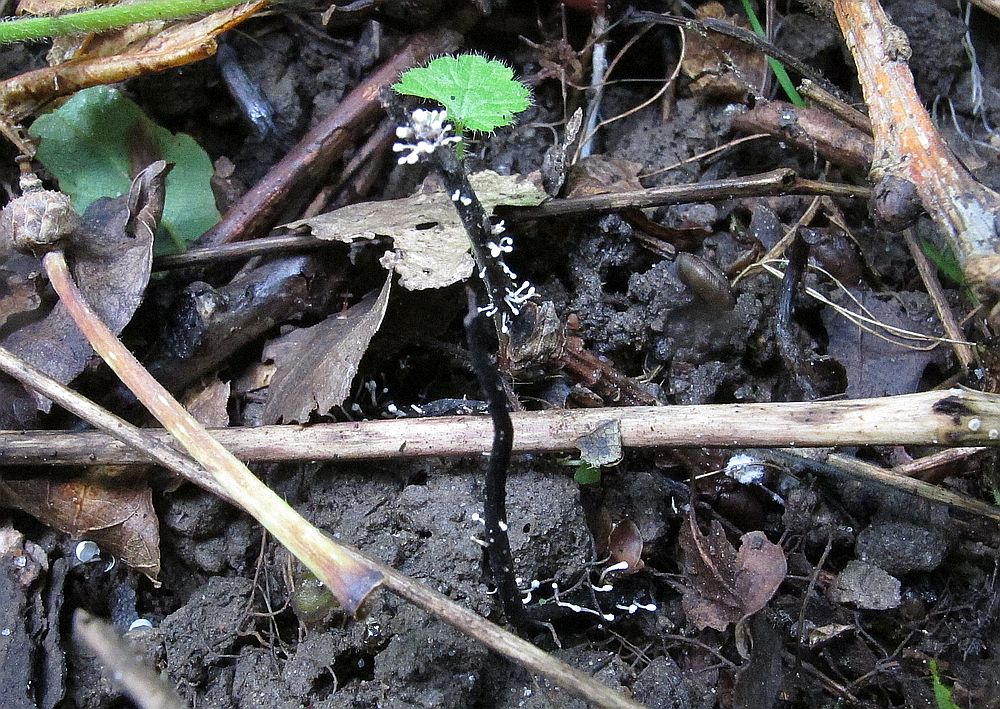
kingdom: Fungi
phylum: Ascomycota
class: Sordariomycetes
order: Hypocreales
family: Ophiocordycipitaceae
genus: Ophiocordyceps
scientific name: Ophiocordyceps entomorrhiza
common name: grå snyltekølle
